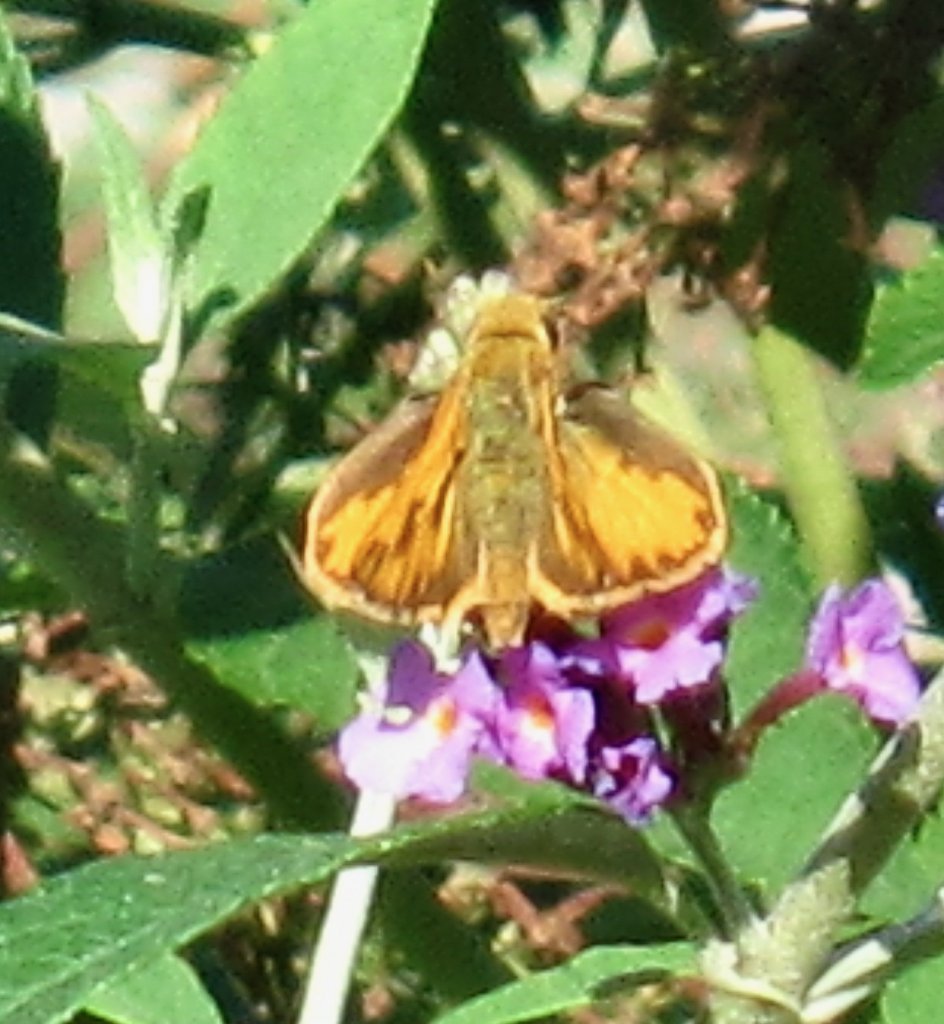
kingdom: Animalia
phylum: Arthropoda
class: Insecta
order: Lepidoptera
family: Hesperiidae
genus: Hylephila
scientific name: Hylephila phyleus
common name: Fiery Skipper
